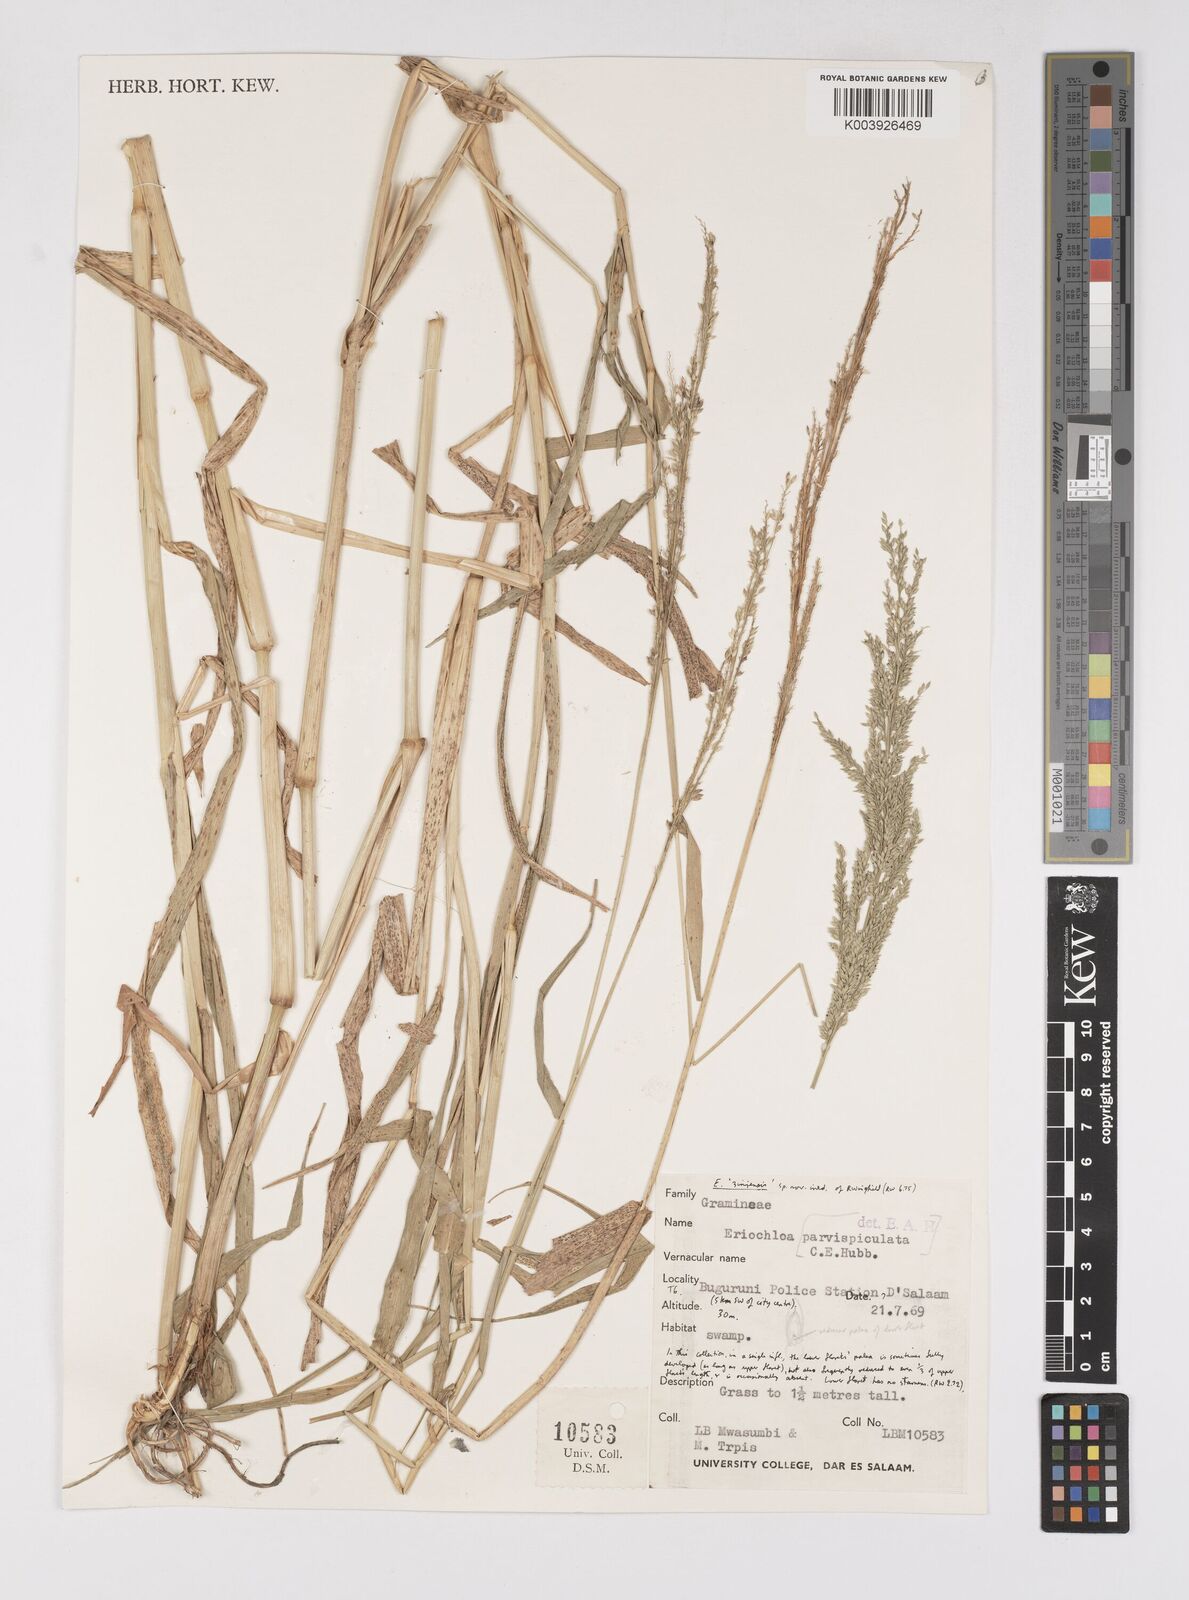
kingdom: Plantae
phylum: Tracheophyta
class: Liliopsida
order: Poales
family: Poaceae
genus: Eriochloa
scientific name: Eriochloa parvispiculata
